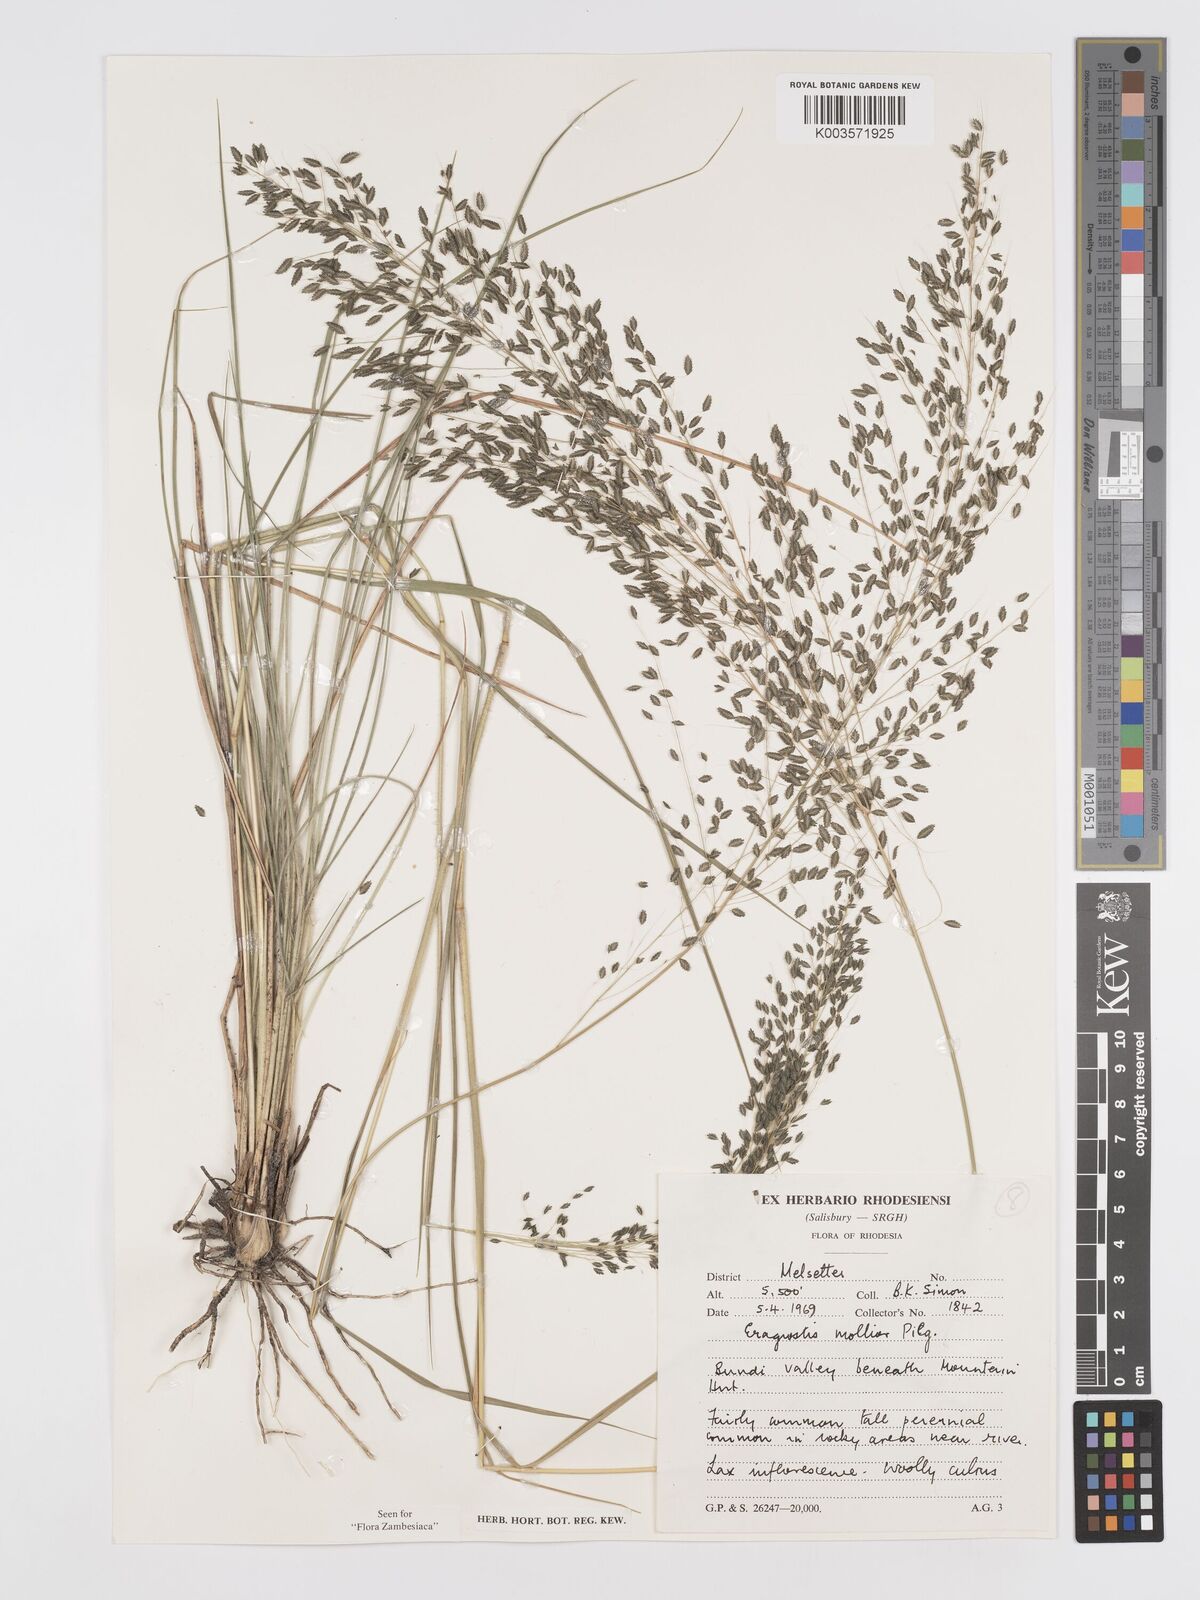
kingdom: Plantae
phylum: Tracheophyta
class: Liliopsida
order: Poales
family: Poaceae
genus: Eragrostis
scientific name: Eragrostis mollior
